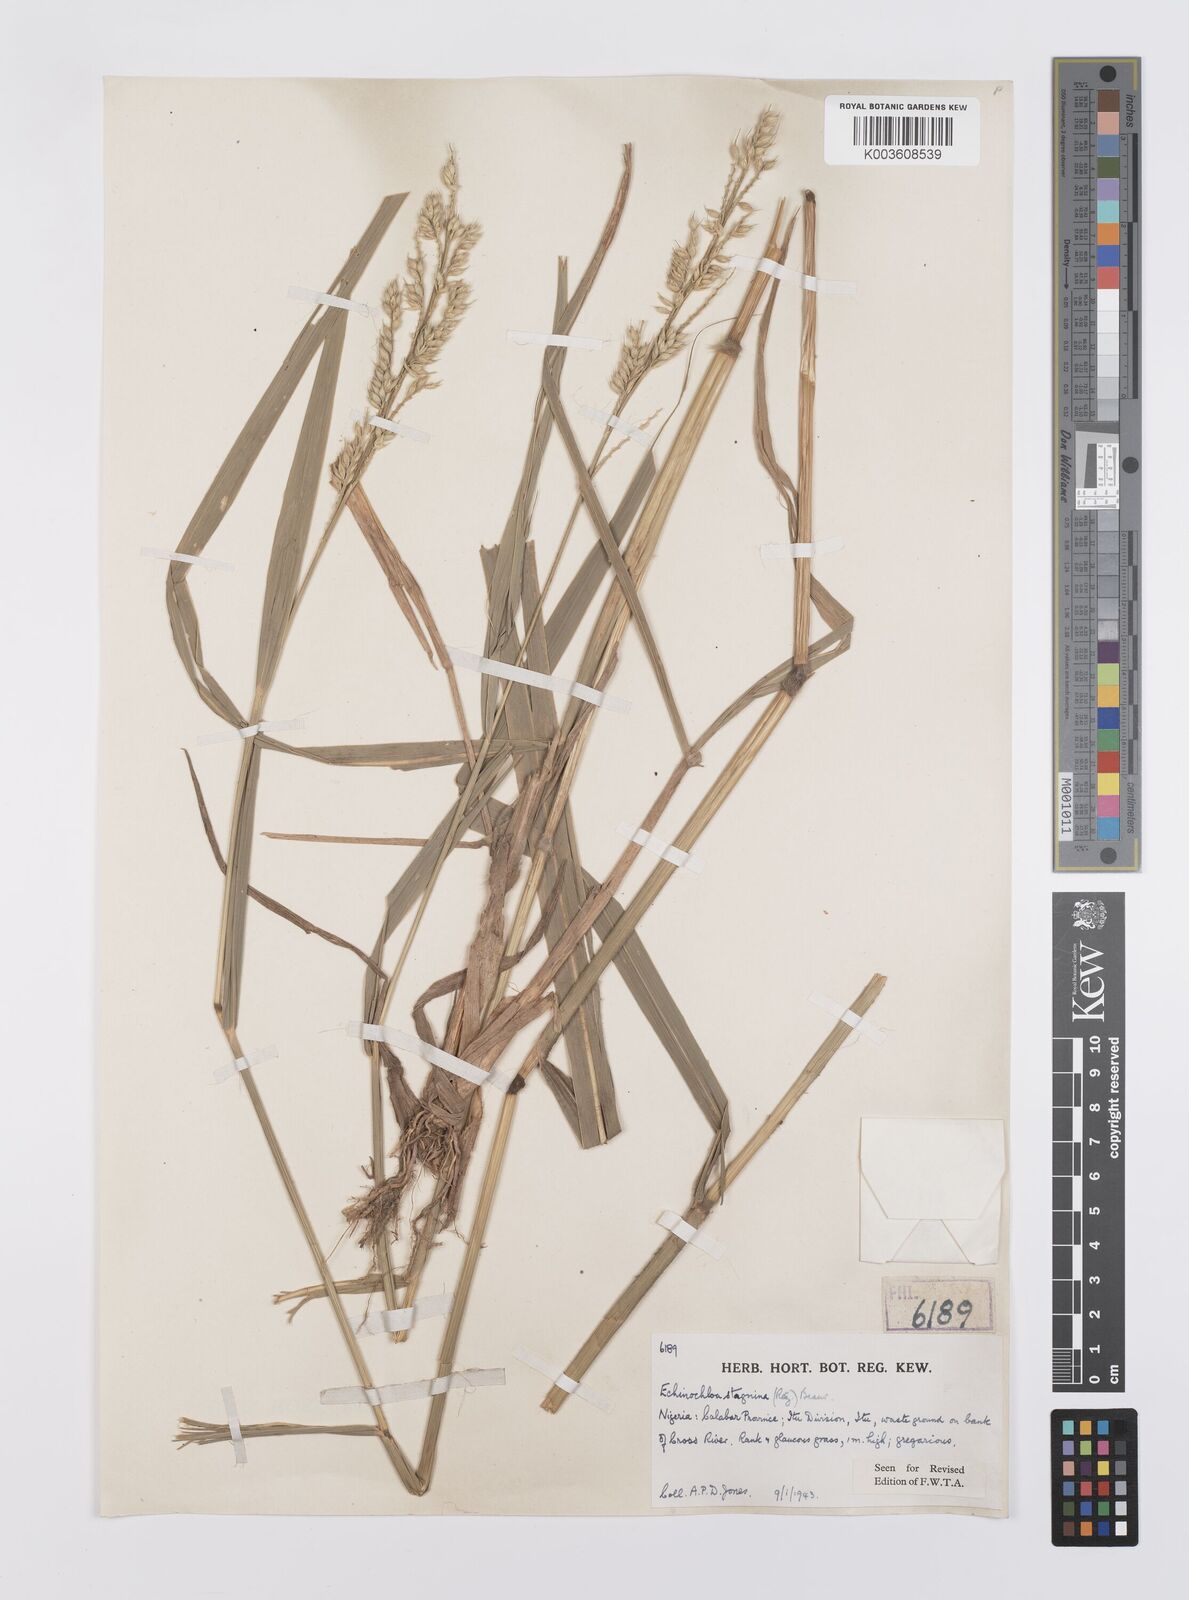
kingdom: Plantae
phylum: Tracheophyta
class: Liliopsida
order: Poales
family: Poaceae
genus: Echinochloa
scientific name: Echinochloa stagnina
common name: Burgu grass
